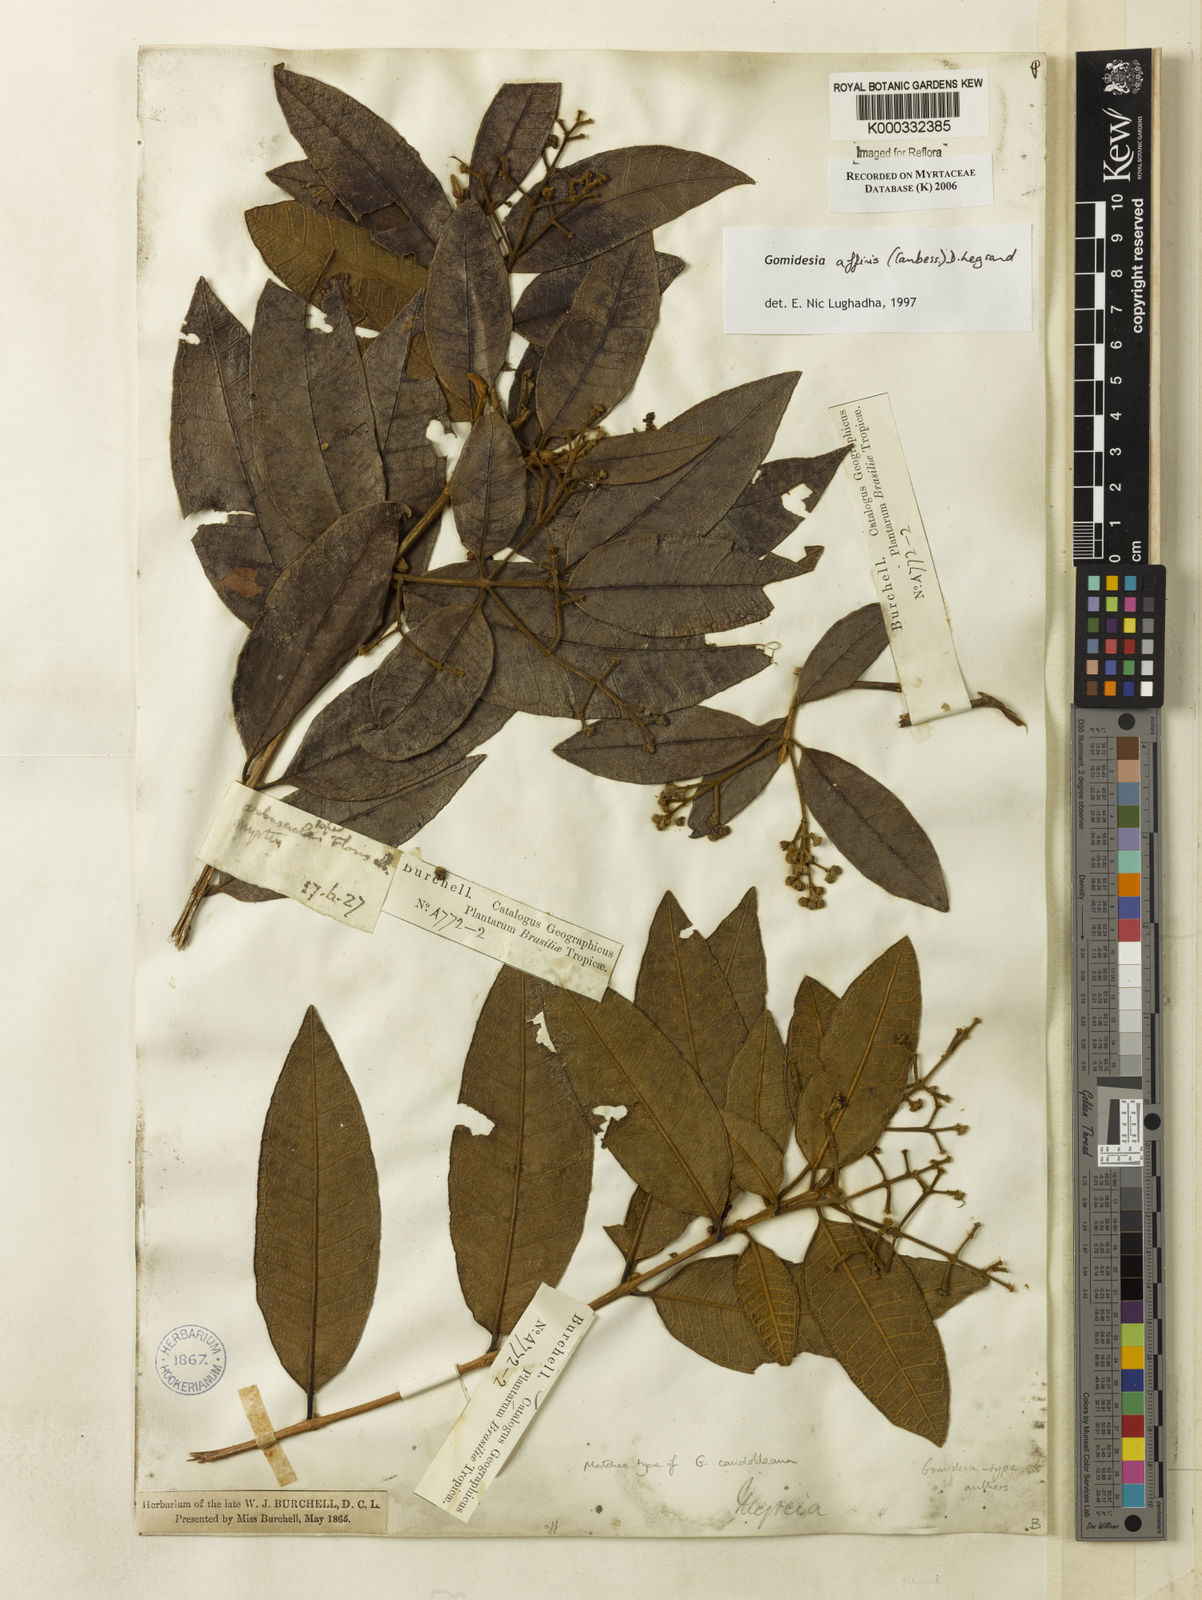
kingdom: Plantae
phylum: Tracheophyta
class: Magnoliopsida
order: Myrtales
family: Myrtaceae
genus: Myrcia
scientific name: Myrcia hebepetala
